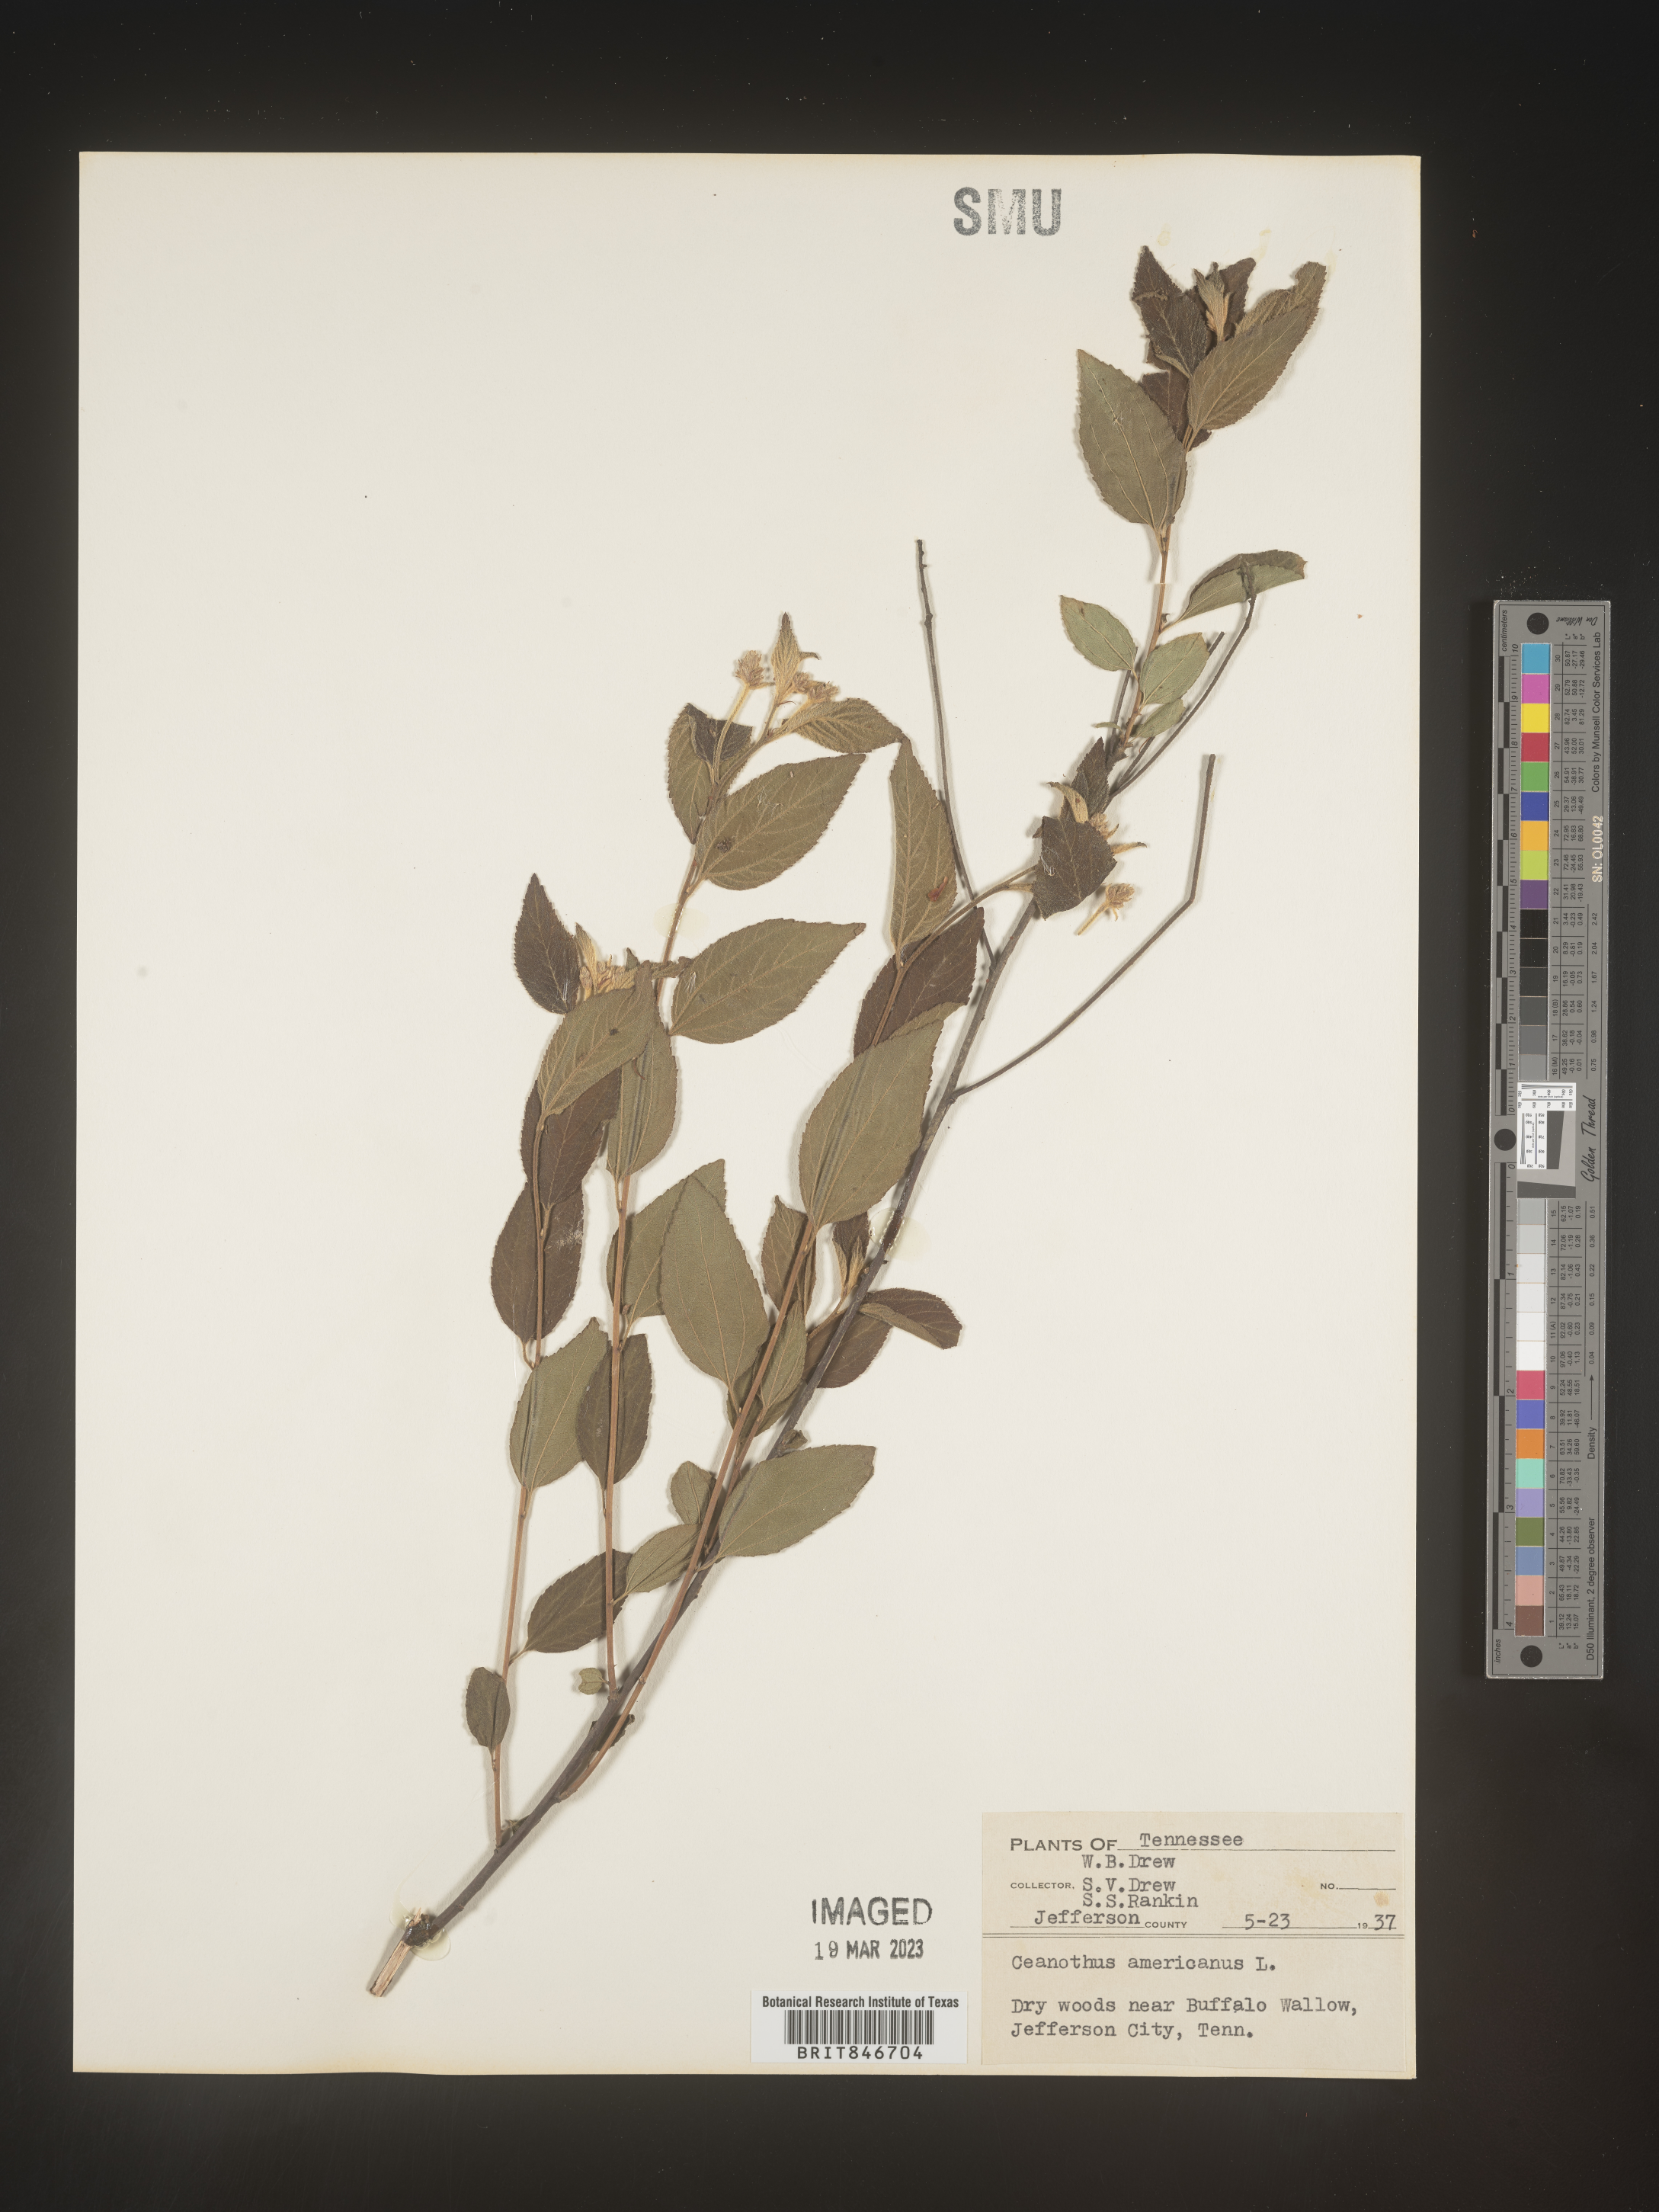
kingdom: Plantae
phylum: Tracheophyta
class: Magnoliopsida
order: Rosales
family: Rhamnaceae
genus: Ceanothus
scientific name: Ceanothus americanus
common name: Redroot
